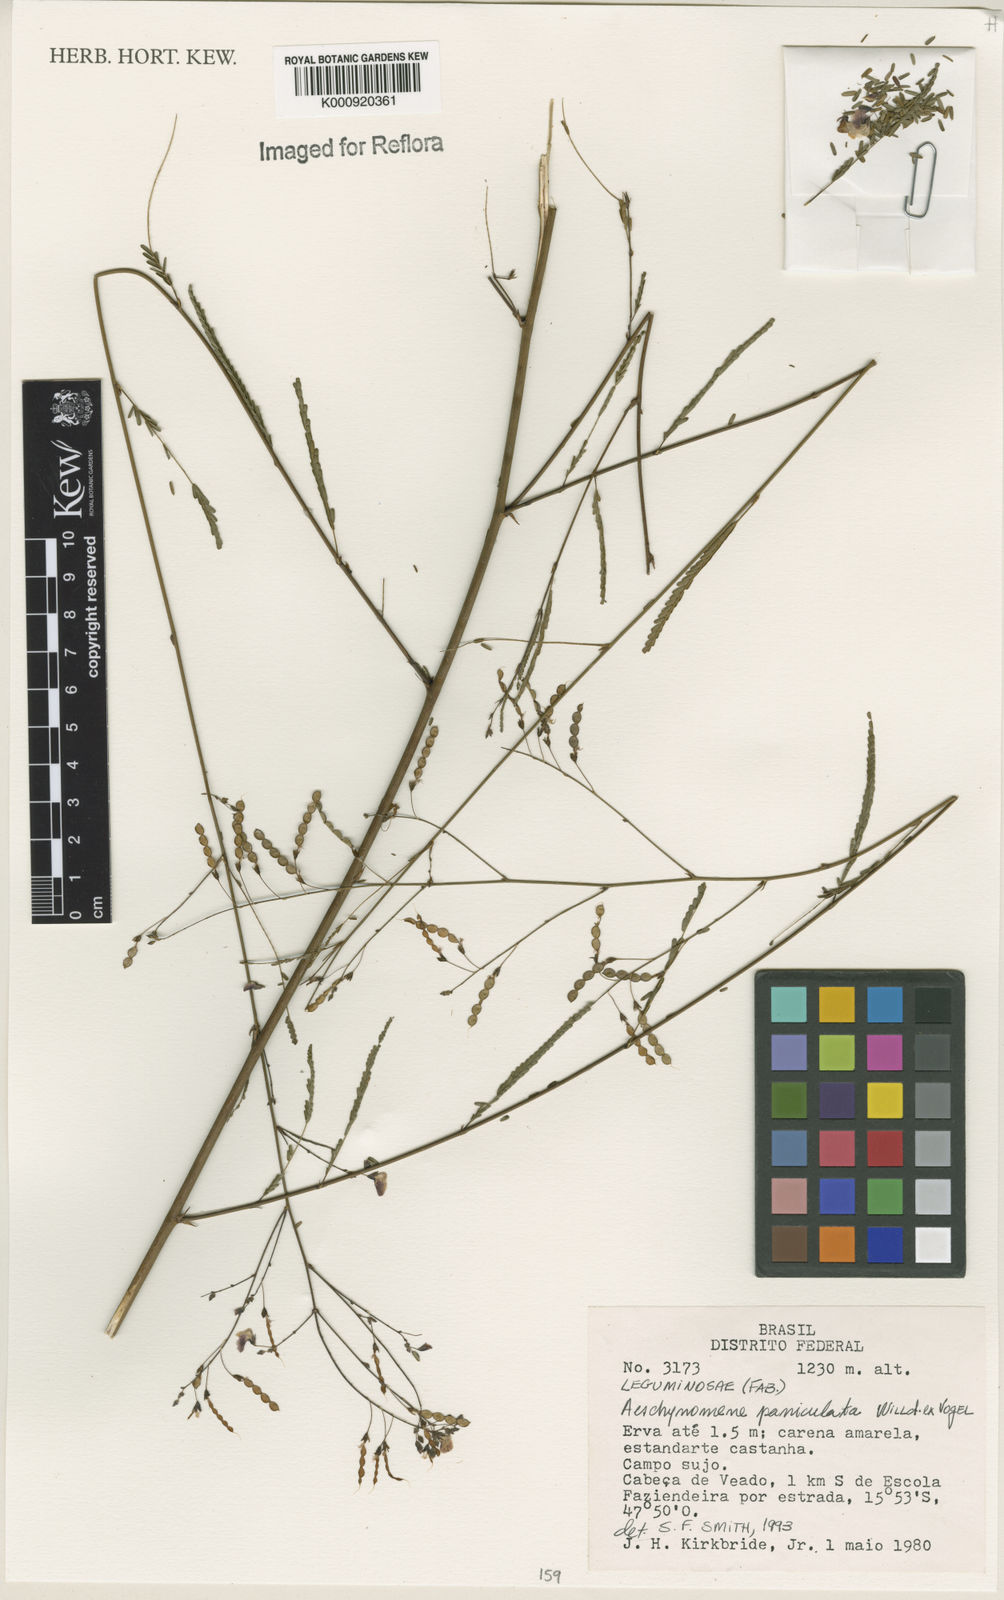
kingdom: Plantae
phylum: Tracheophyta
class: Magnoliopsida
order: Fabales
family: Fabaceae
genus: Ctenodon
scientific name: Ctenodon paniculatus
